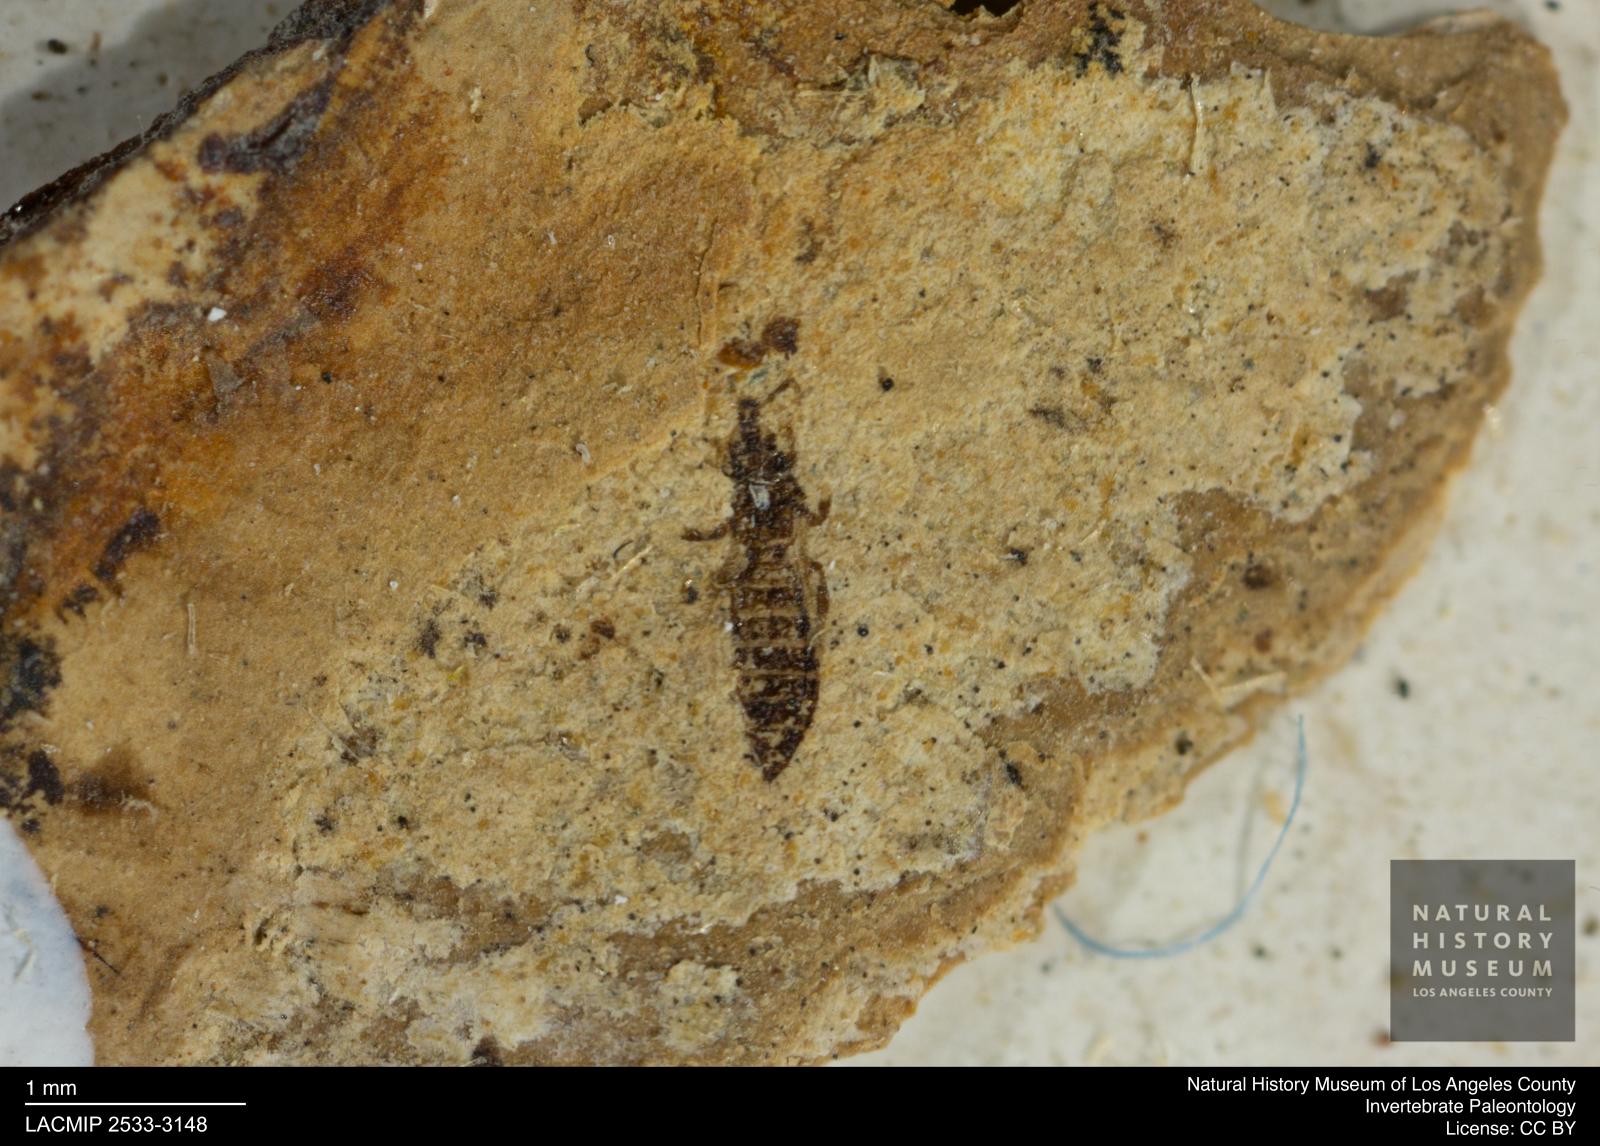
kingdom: Animalia
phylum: Arthropoda
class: Insecta
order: Thysanoptera
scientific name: Thysanoptera
